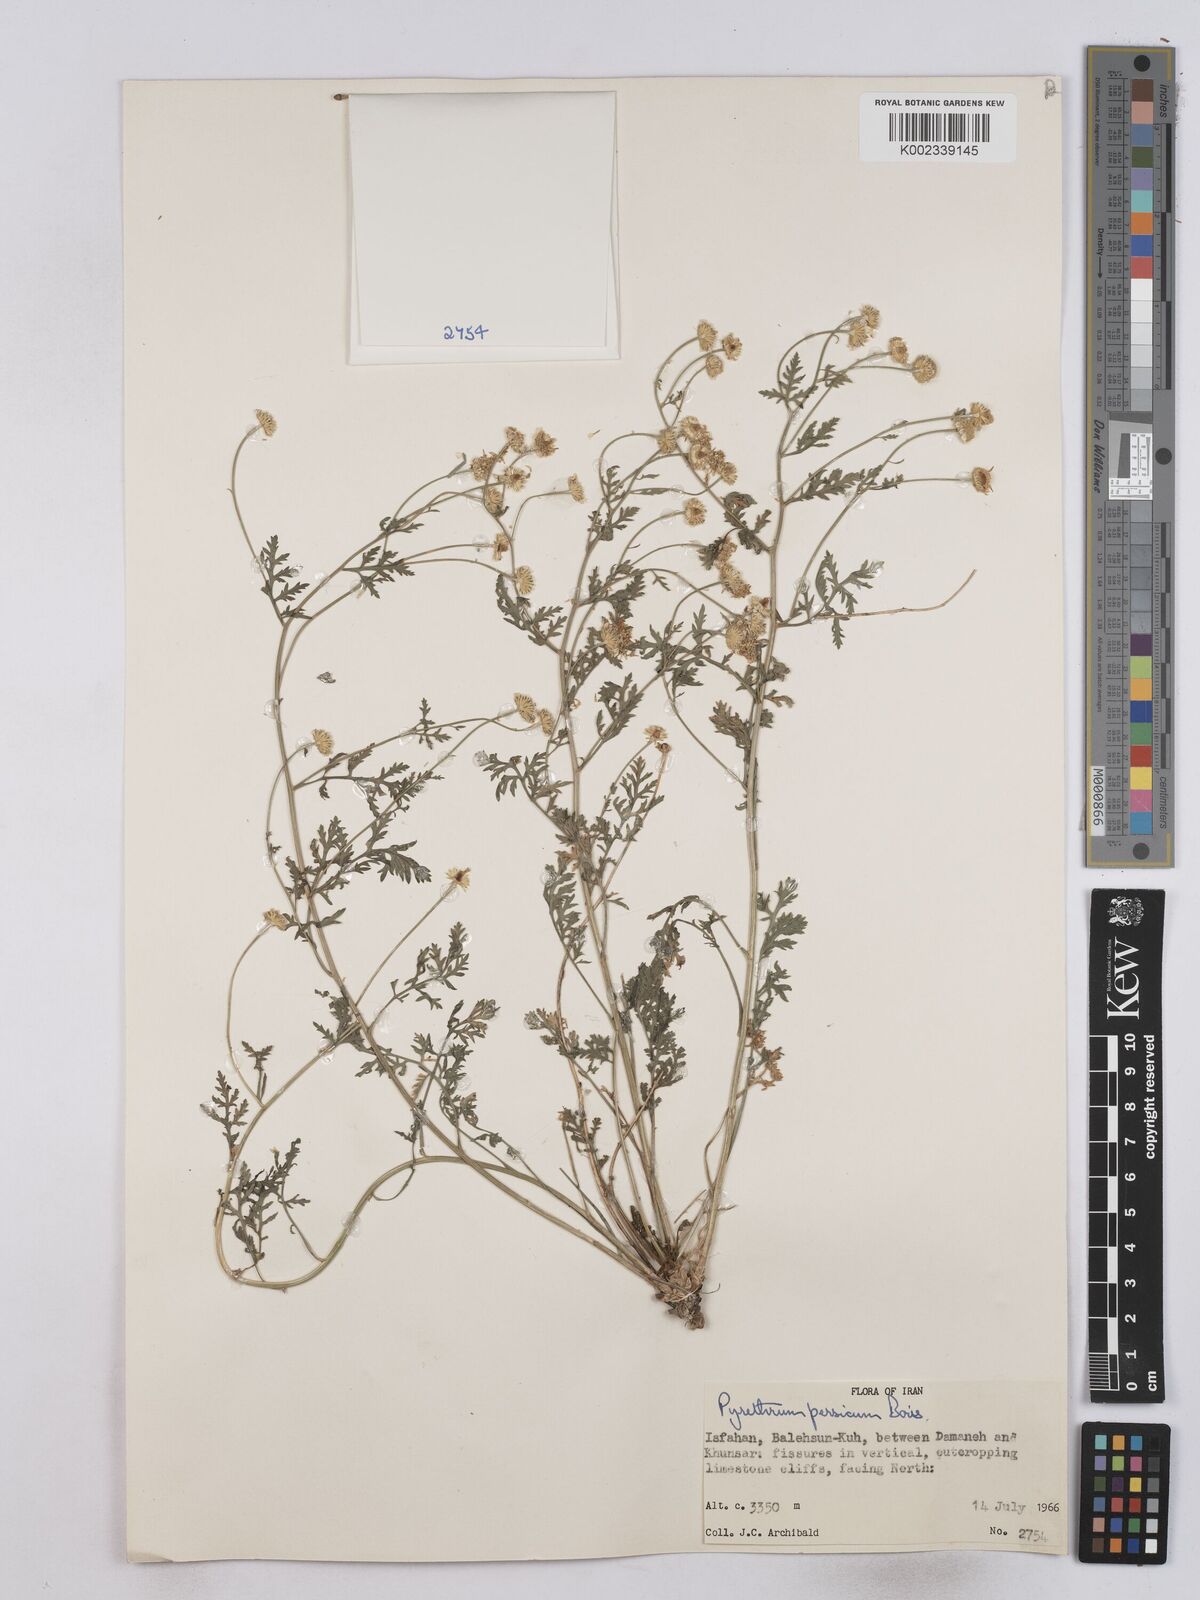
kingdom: Plantae
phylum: Tracheophyta
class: Magnoliopsida
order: Asterales
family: Asteraceae
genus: Tanacetum
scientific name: Tanacetum partheniifolium
